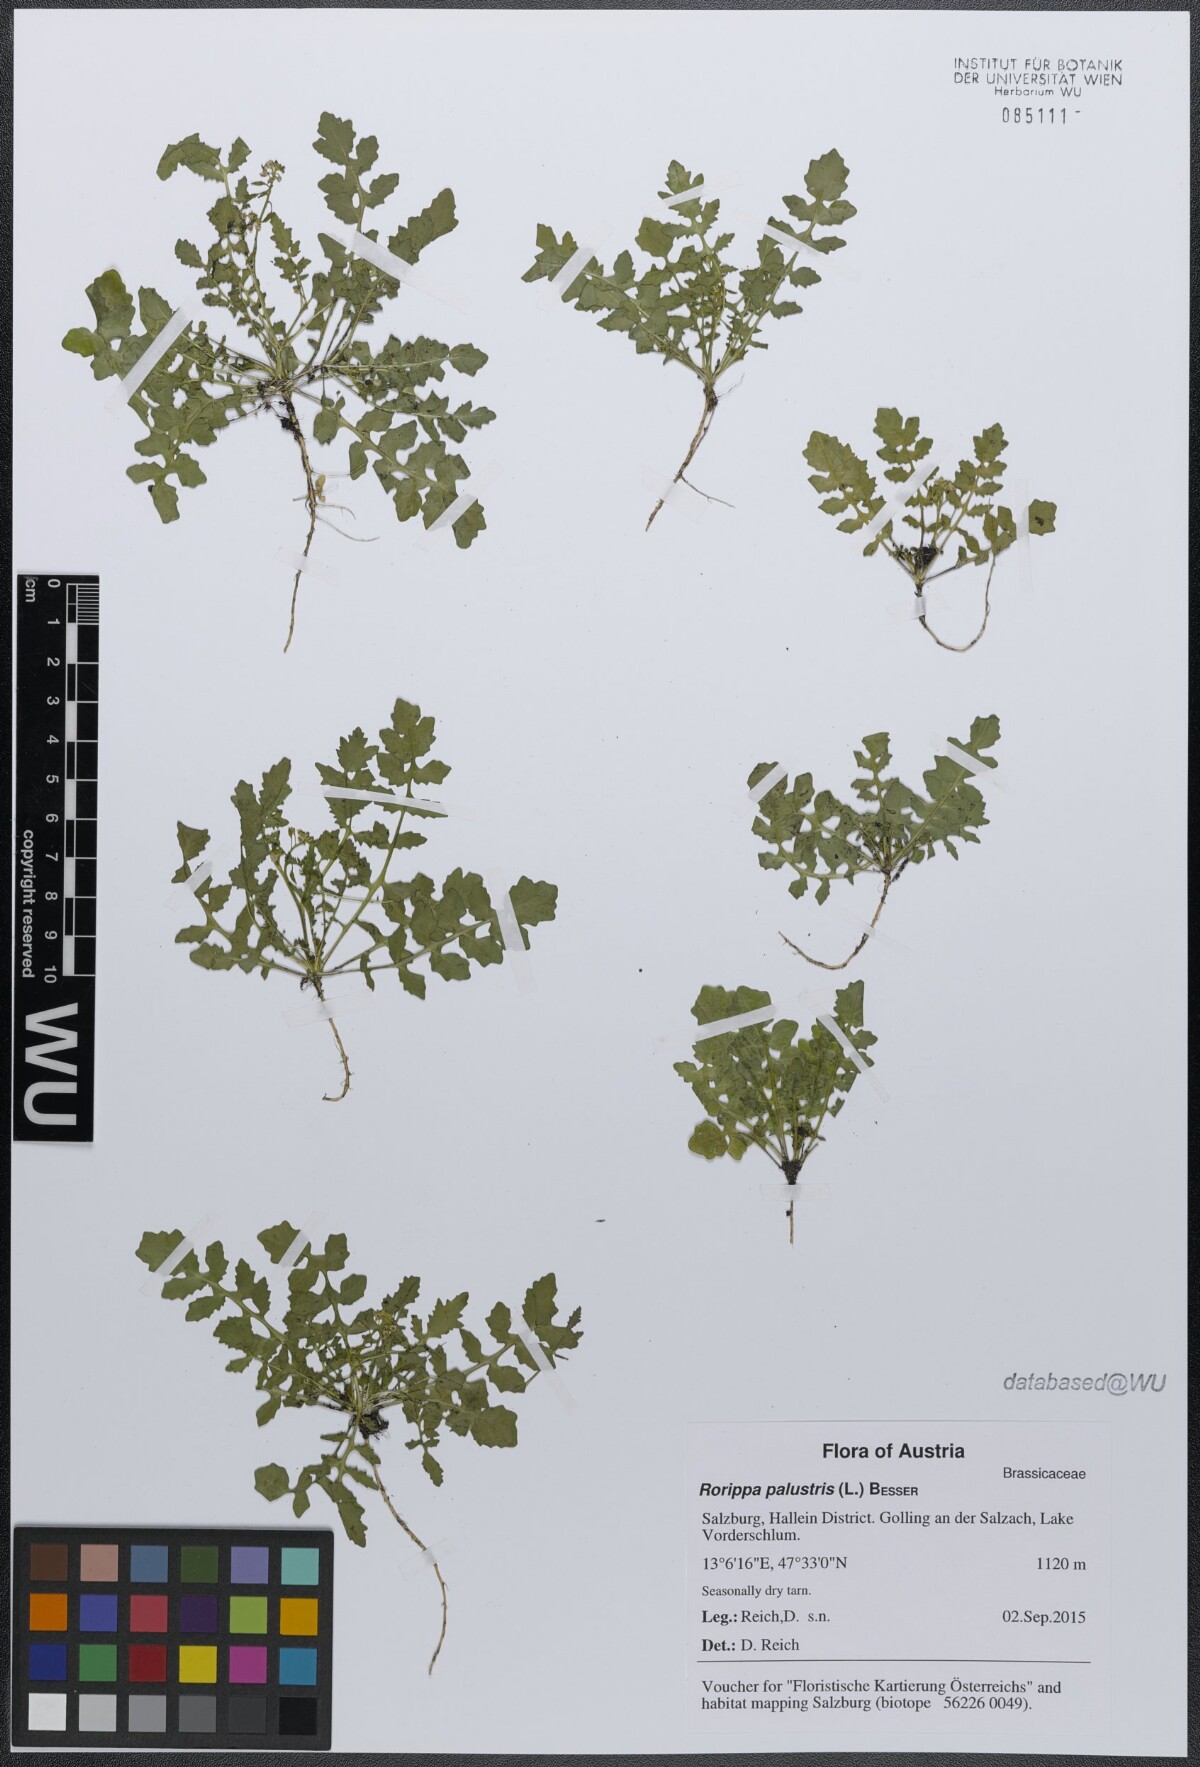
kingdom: Plantae
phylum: Tracheophyta
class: Magnoliopsida
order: Brassicales
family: Brassicaceae
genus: Rorippa
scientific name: Rorippa palustris
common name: Marsh yellow-cress
